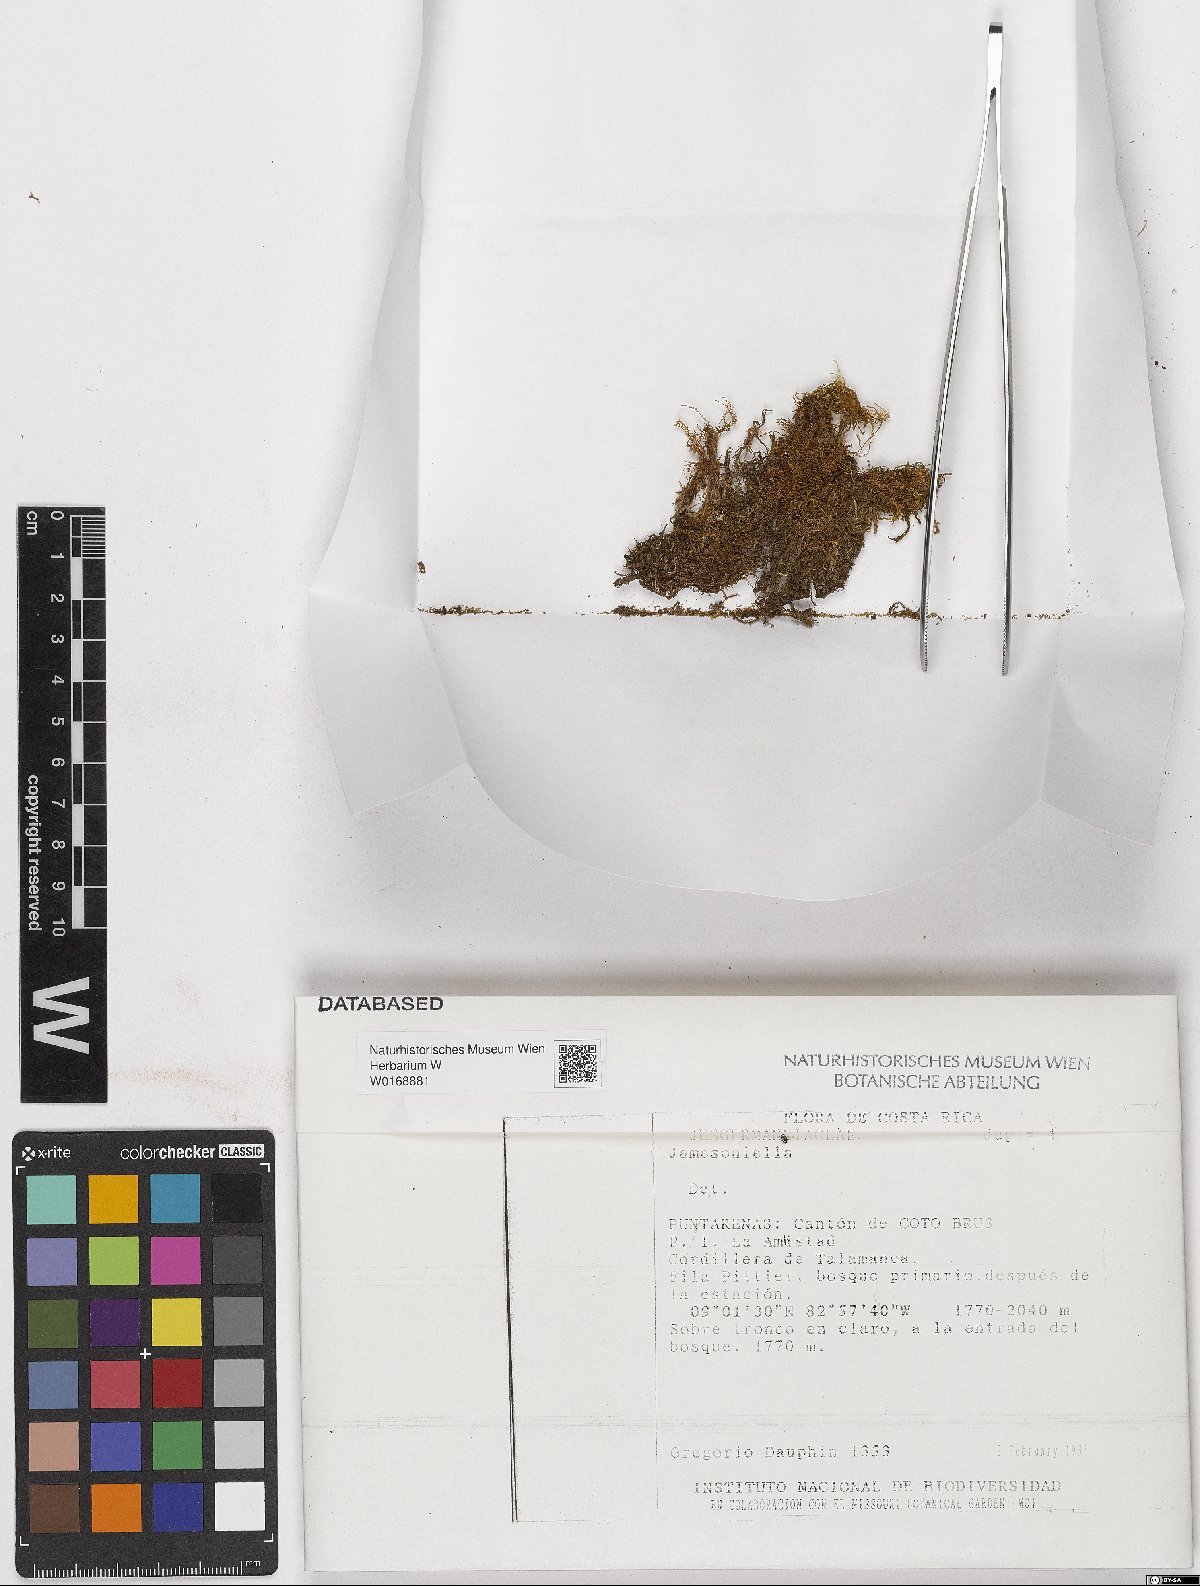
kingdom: Plantae
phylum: Marchantiophyta
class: Jungermanniopsida
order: Jungermanniales
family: Anastrophyllaceae
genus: Jamesoniella
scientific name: Jamesoniella
